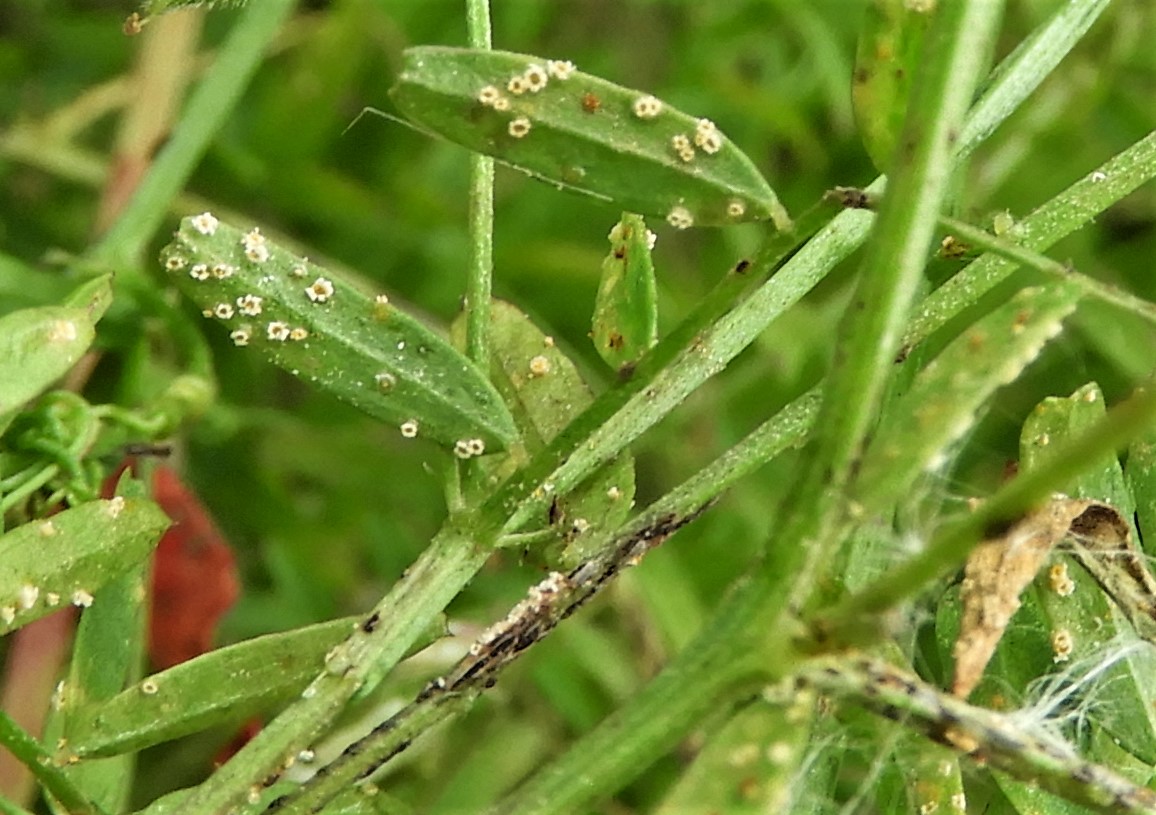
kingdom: Fungi
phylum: Basidiomycota
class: Pucciniomycetes
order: Pucciniales
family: Pucciniaceae
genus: Uromyces
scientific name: Uromyces ervi
